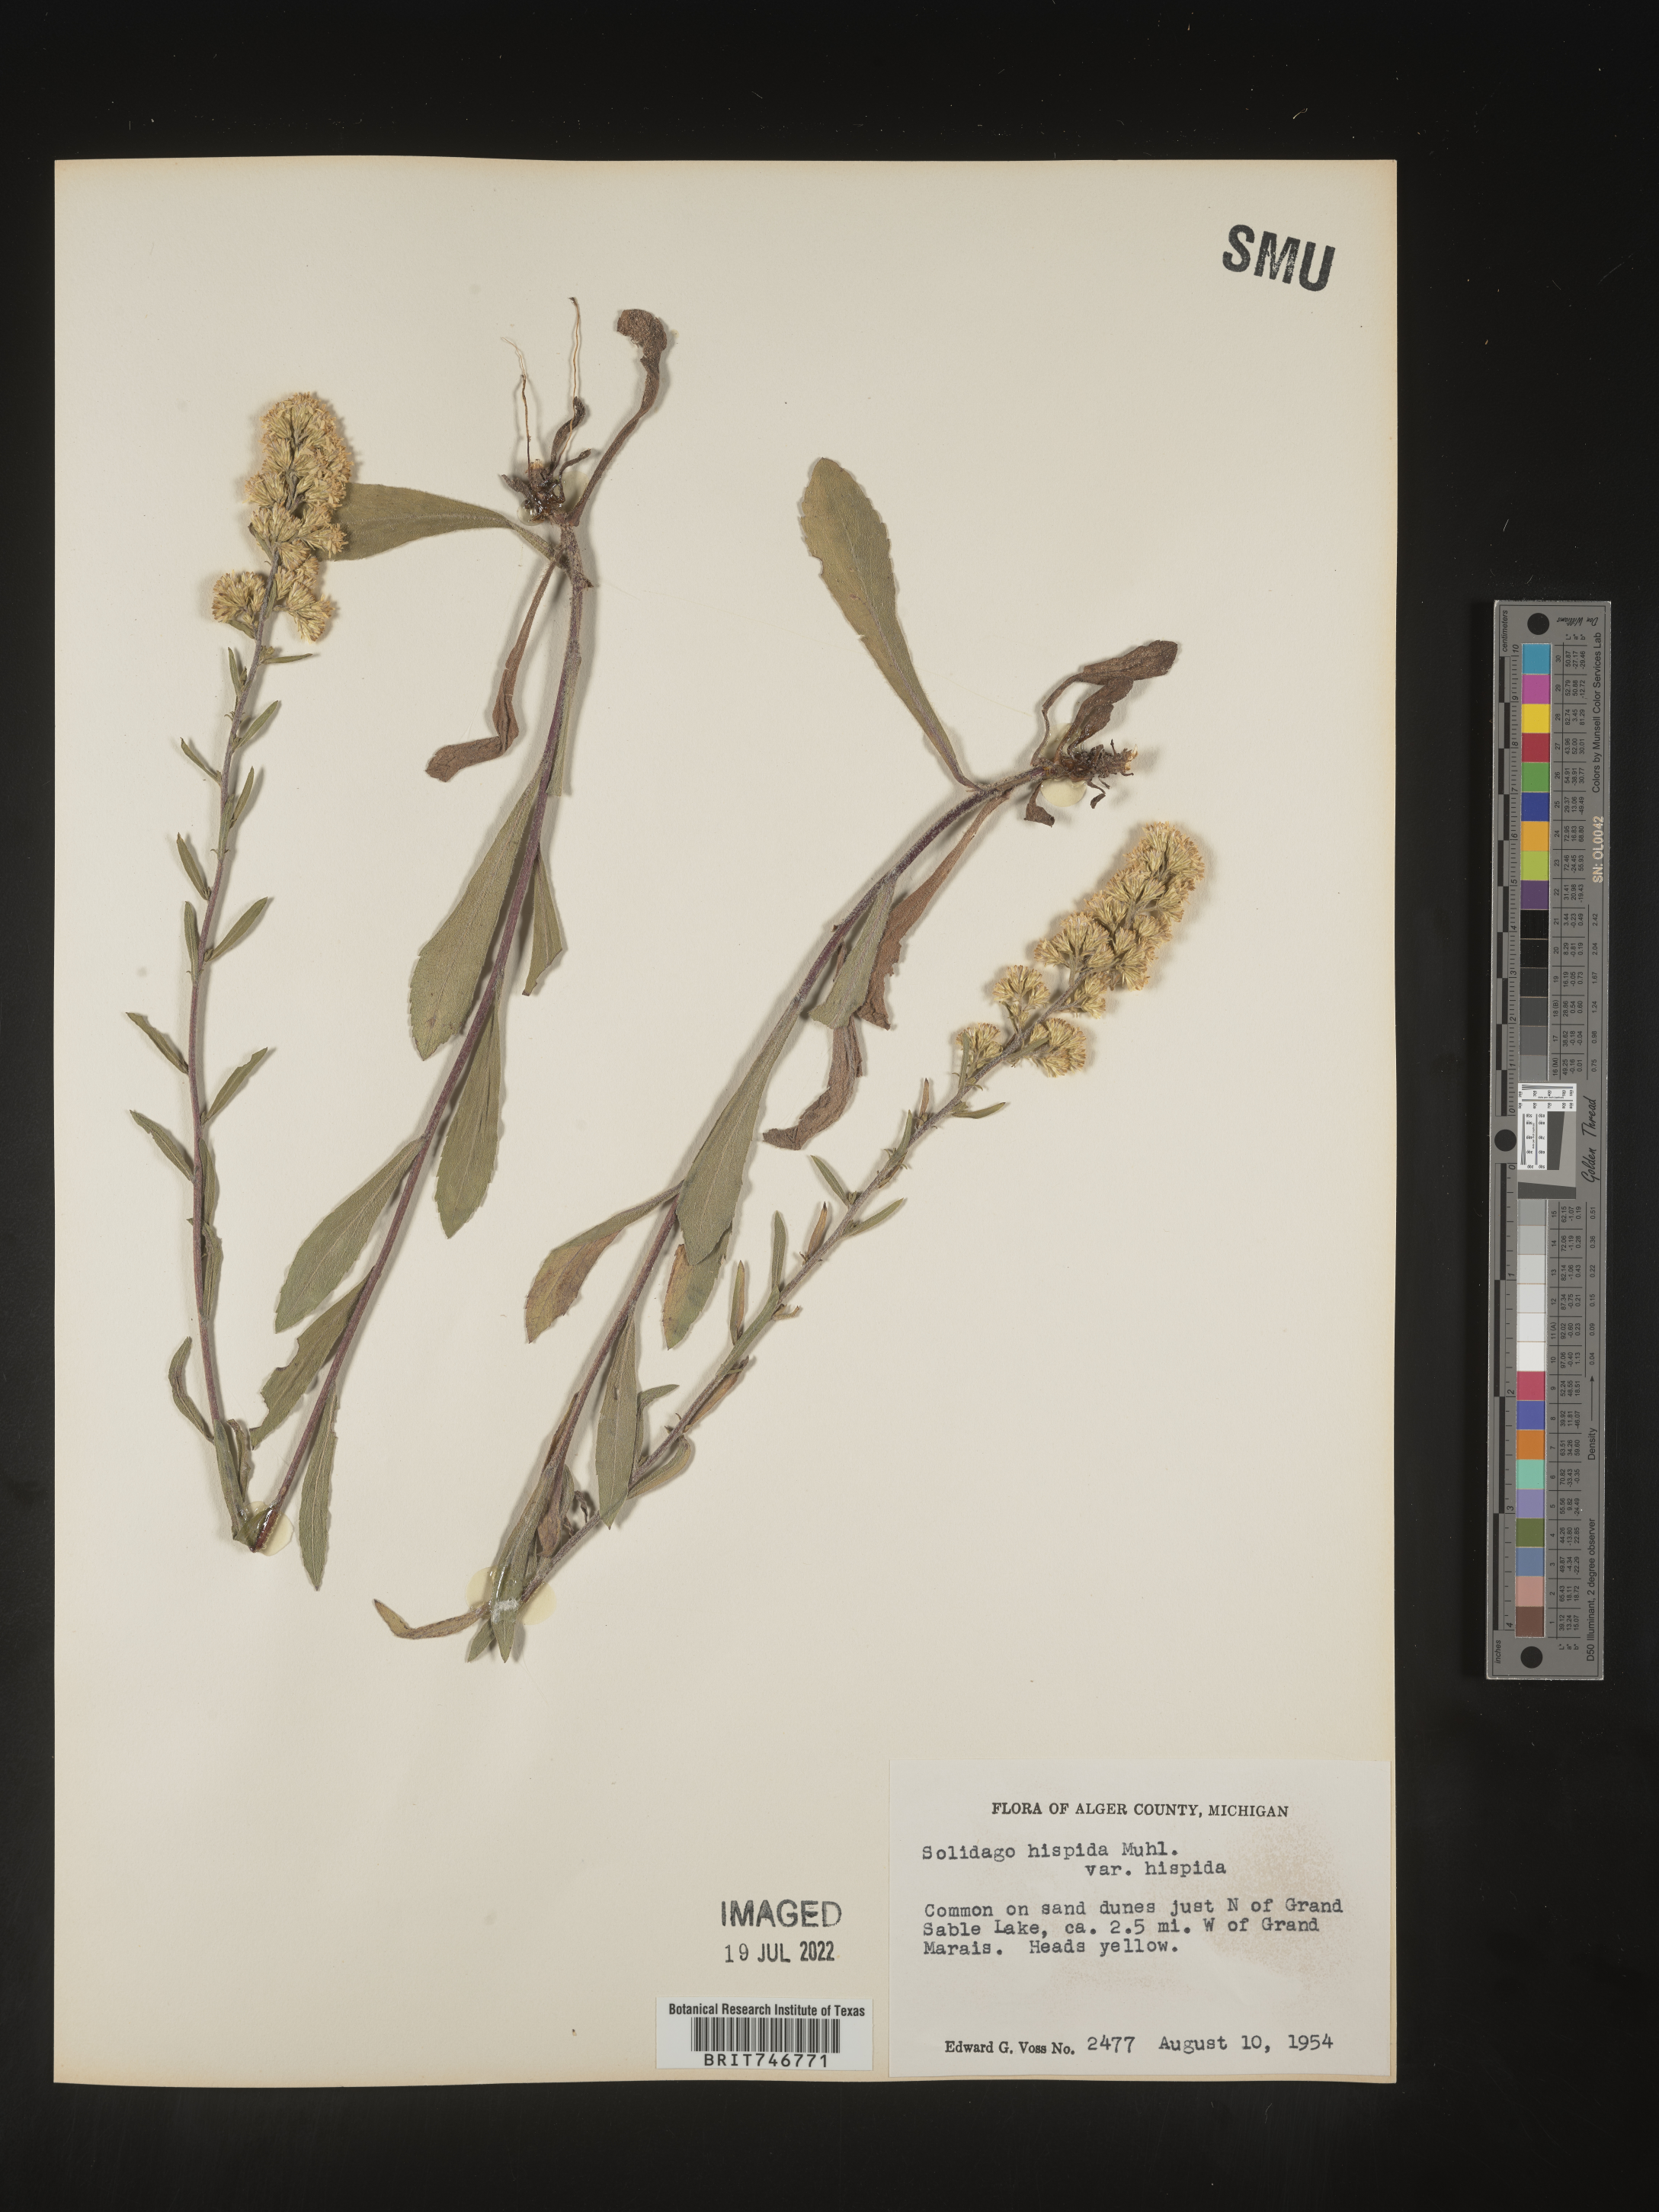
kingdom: Plantae
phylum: Tracheophyta
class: Magnoliopsida
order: Asterales
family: Asteraceae
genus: Solidago
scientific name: Solidago hispida
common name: Hairy goldenrod
